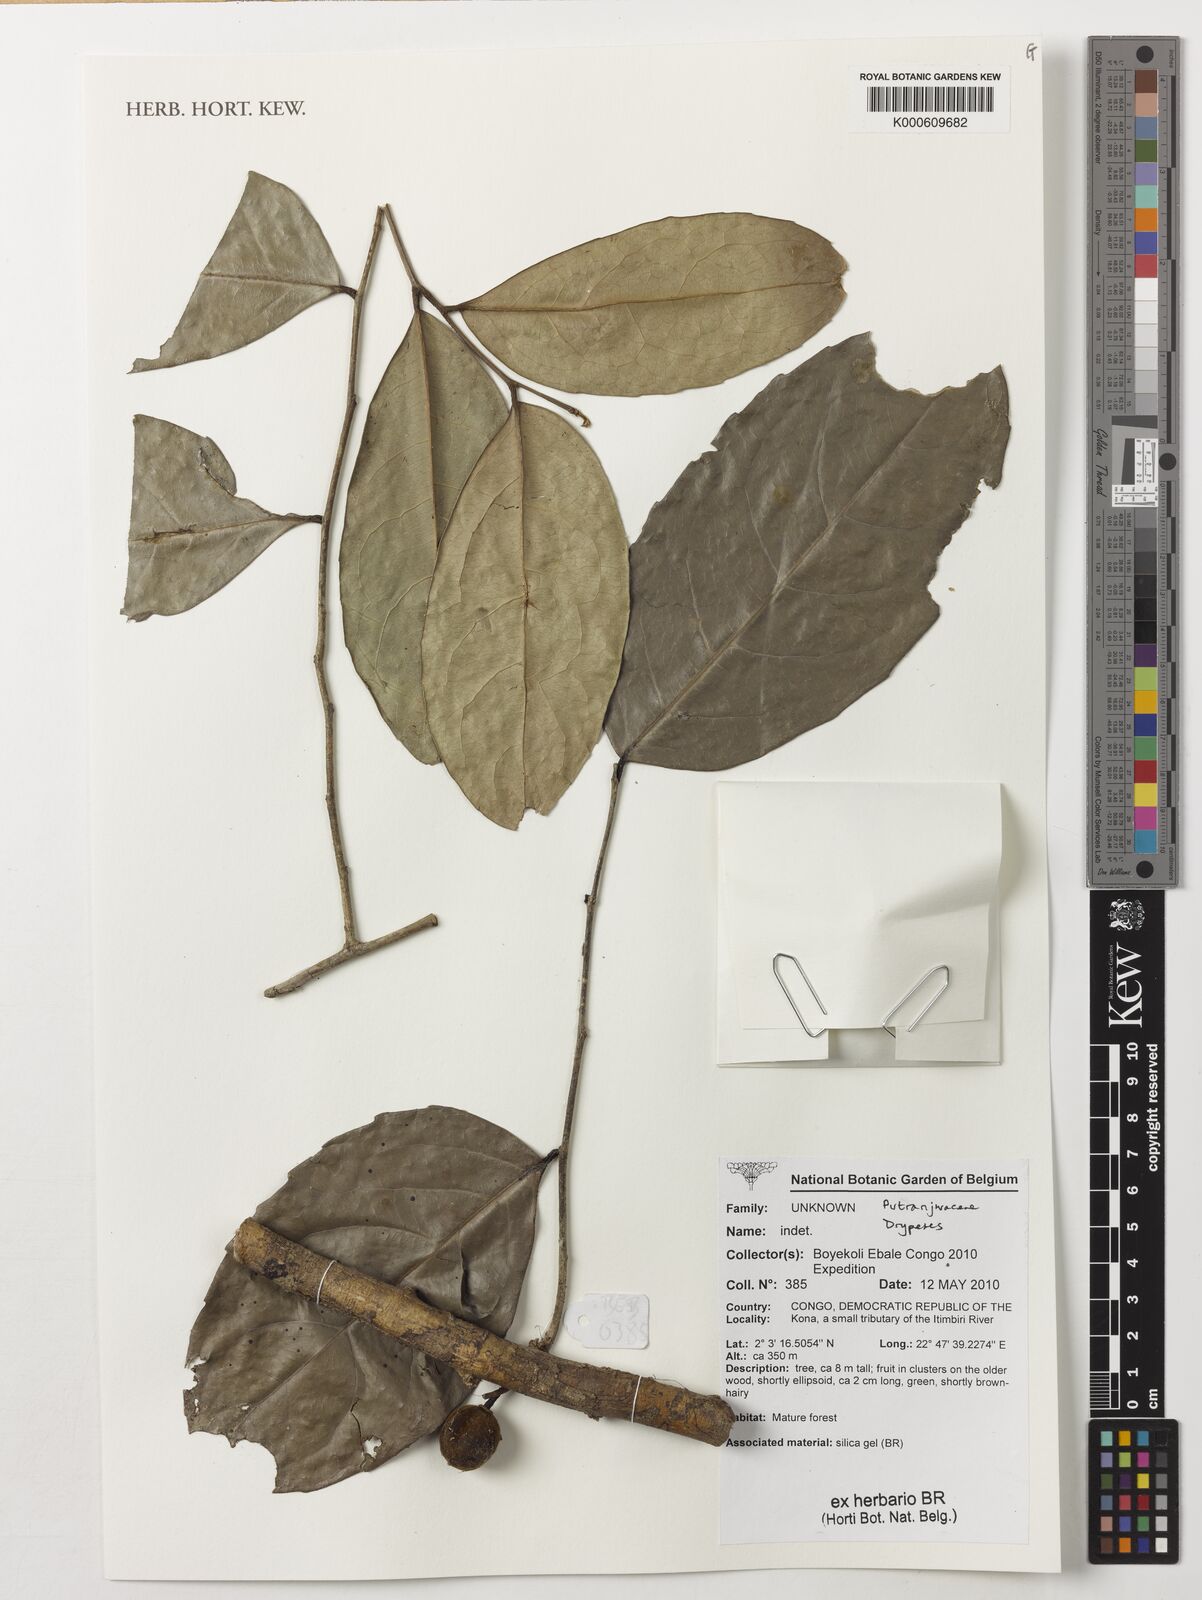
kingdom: Plantae
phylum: Tracheophyta
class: Magnoliopsida
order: Malpighiales
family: Putranjivaceae
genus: Drypetes
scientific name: Drypetes
